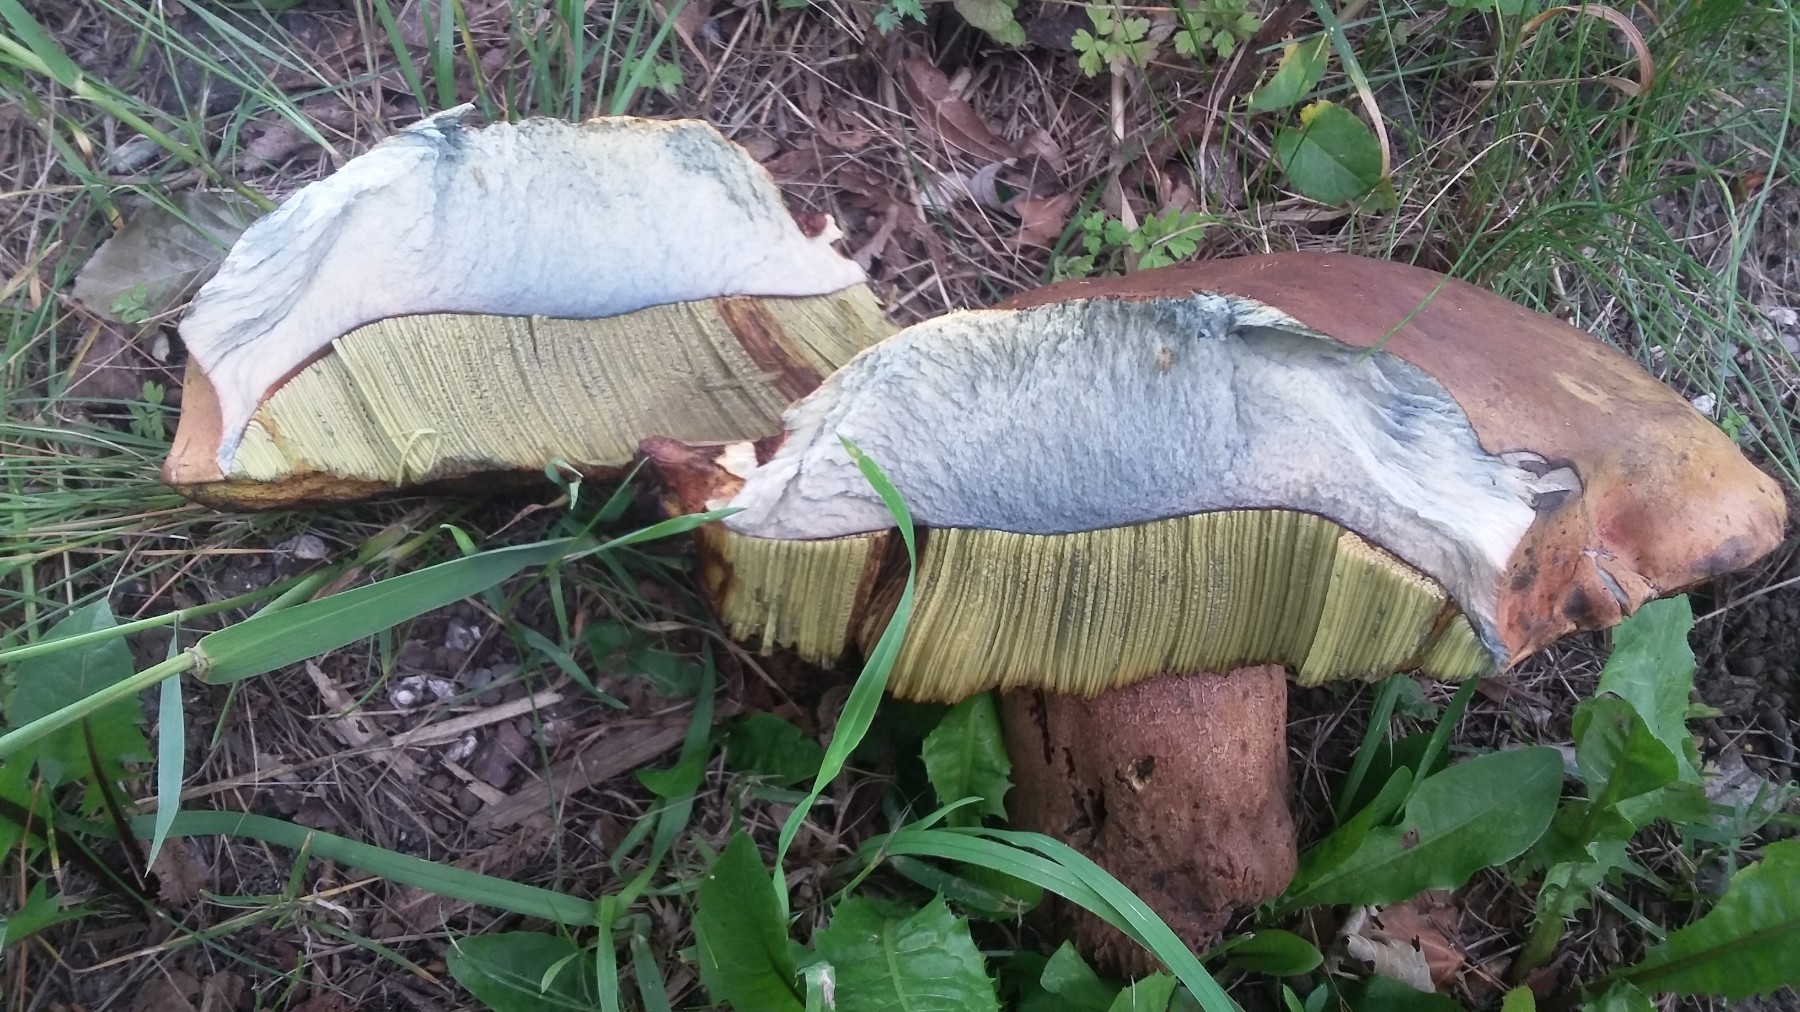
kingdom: Fungi
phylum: Basidiomycota
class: Agaricomycetes
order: Boletales
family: Boletaceae
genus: Suillellus
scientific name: Suillellus
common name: indigorørhat
